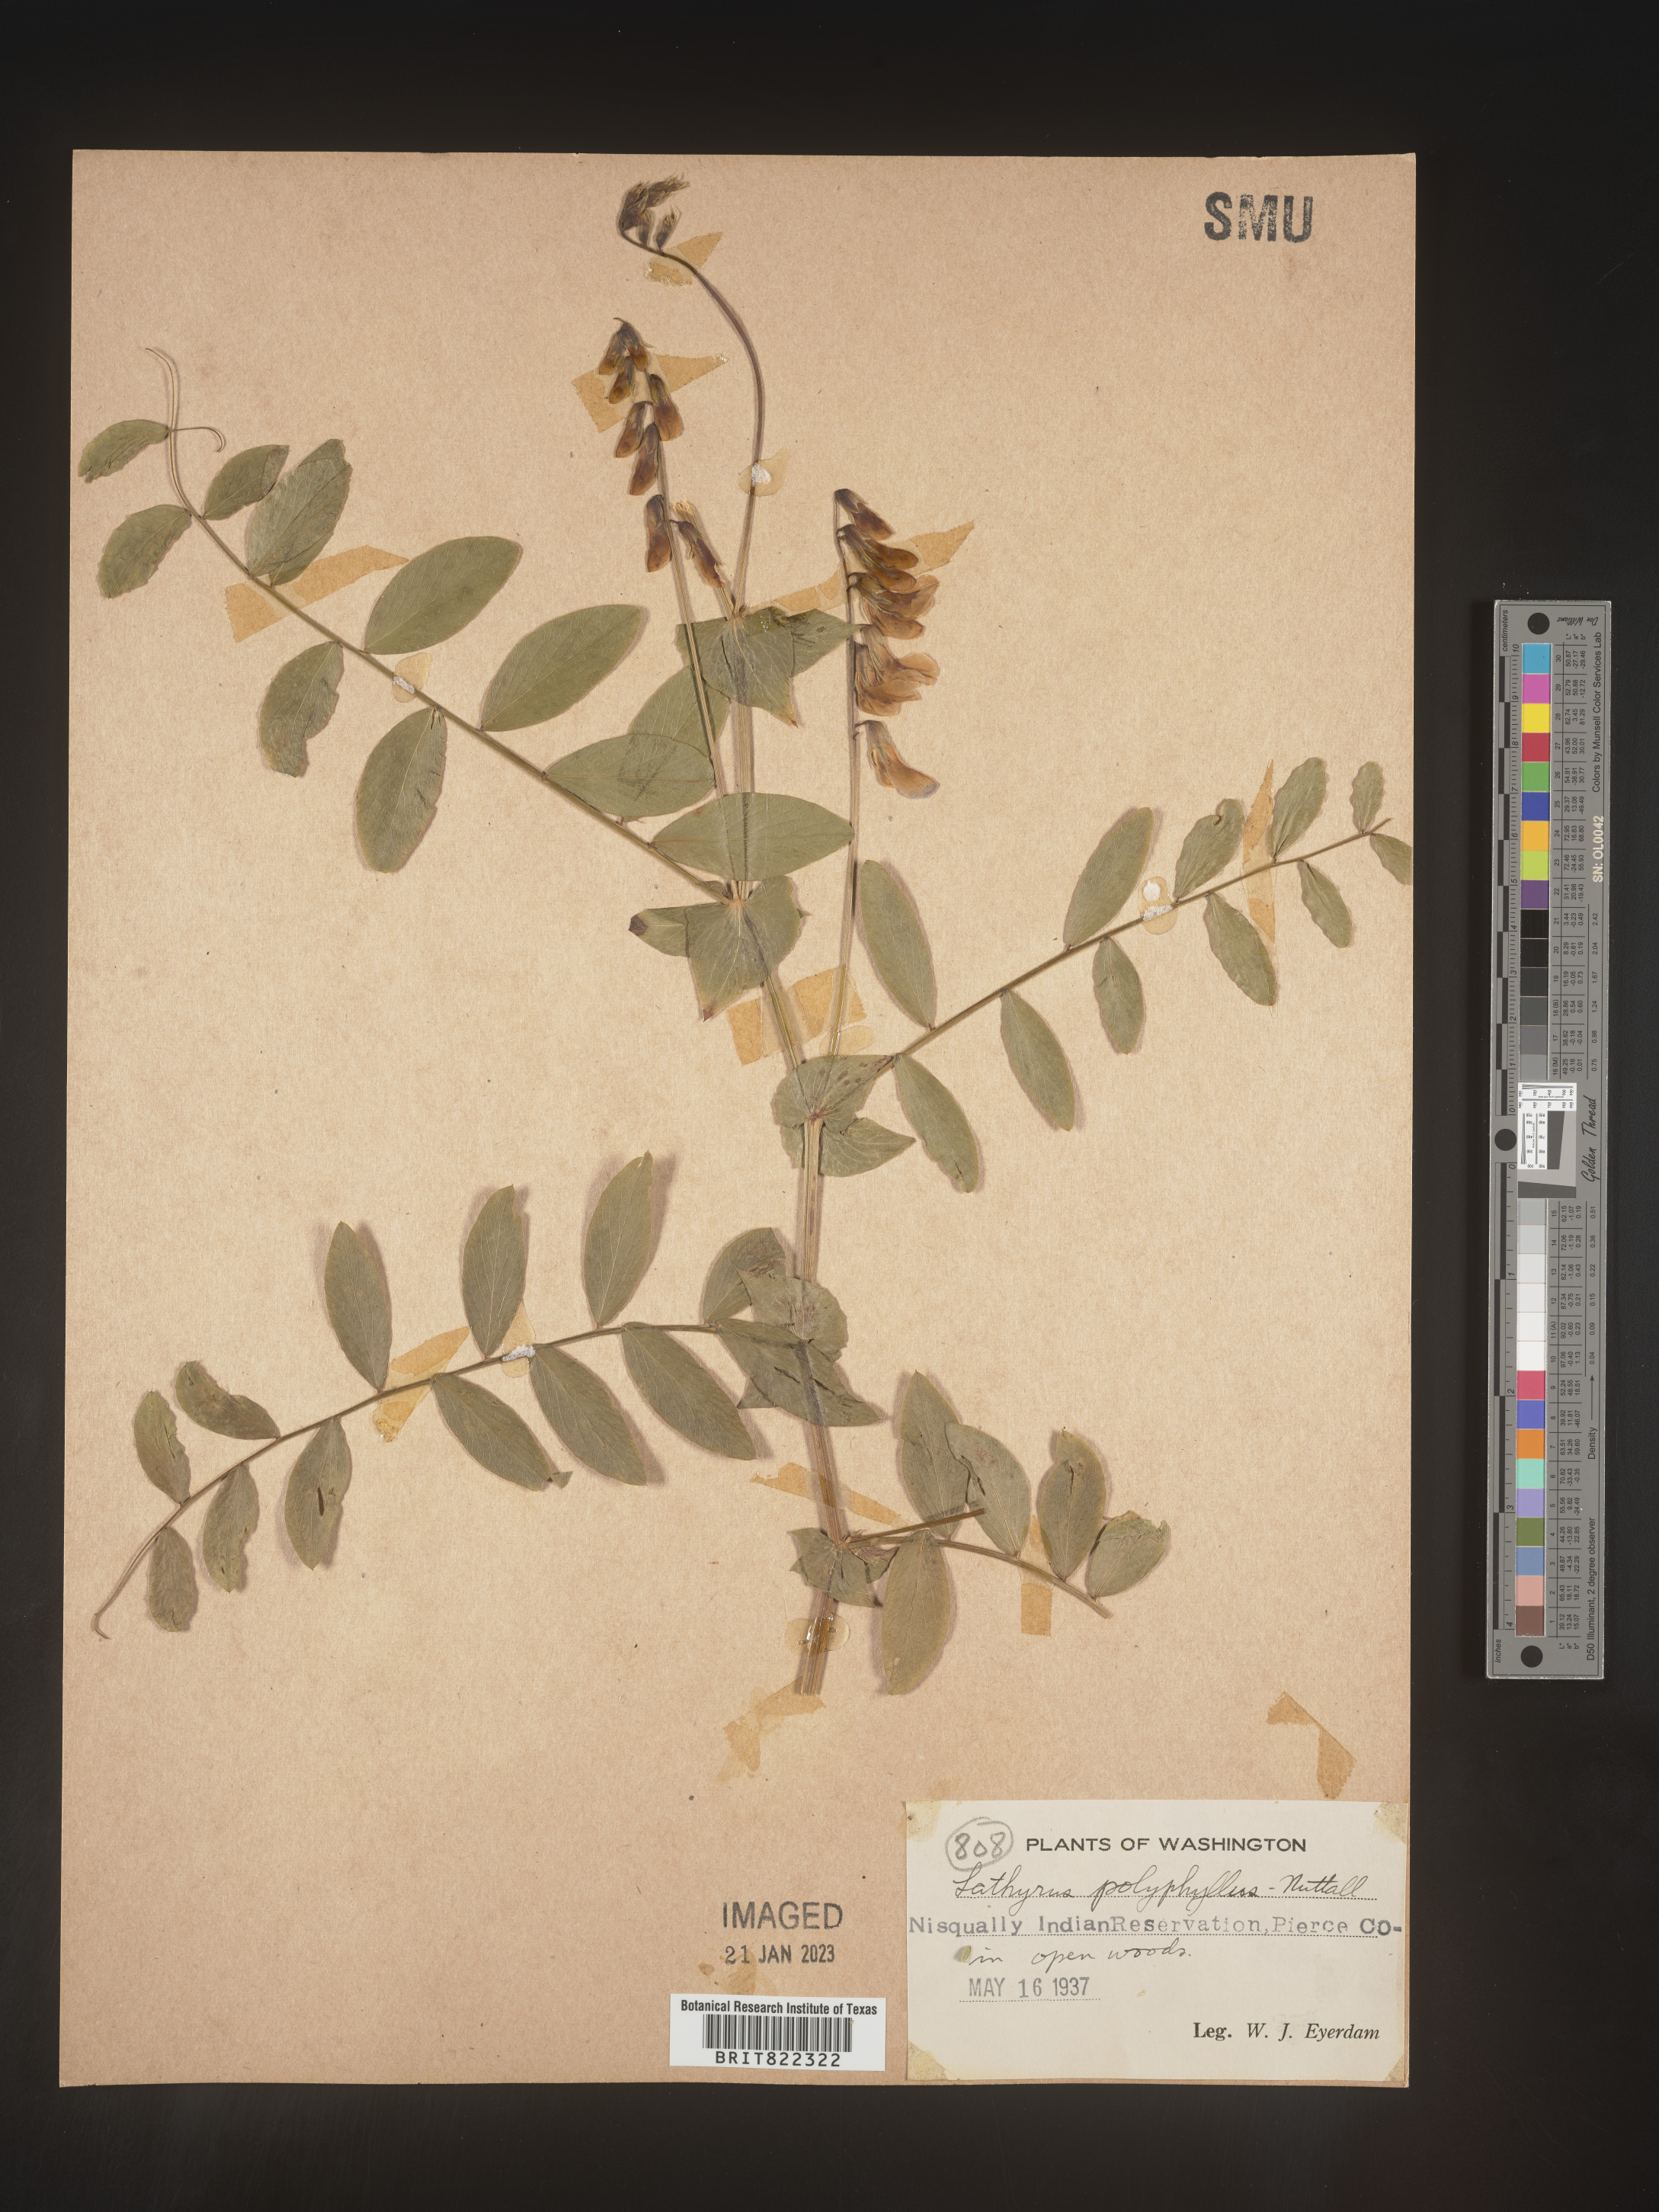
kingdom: Plantae
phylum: Tracheophyta
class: Magnoliopsida
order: Fabales
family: Fabaceae
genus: Lathyrus
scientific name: Lathyrus
